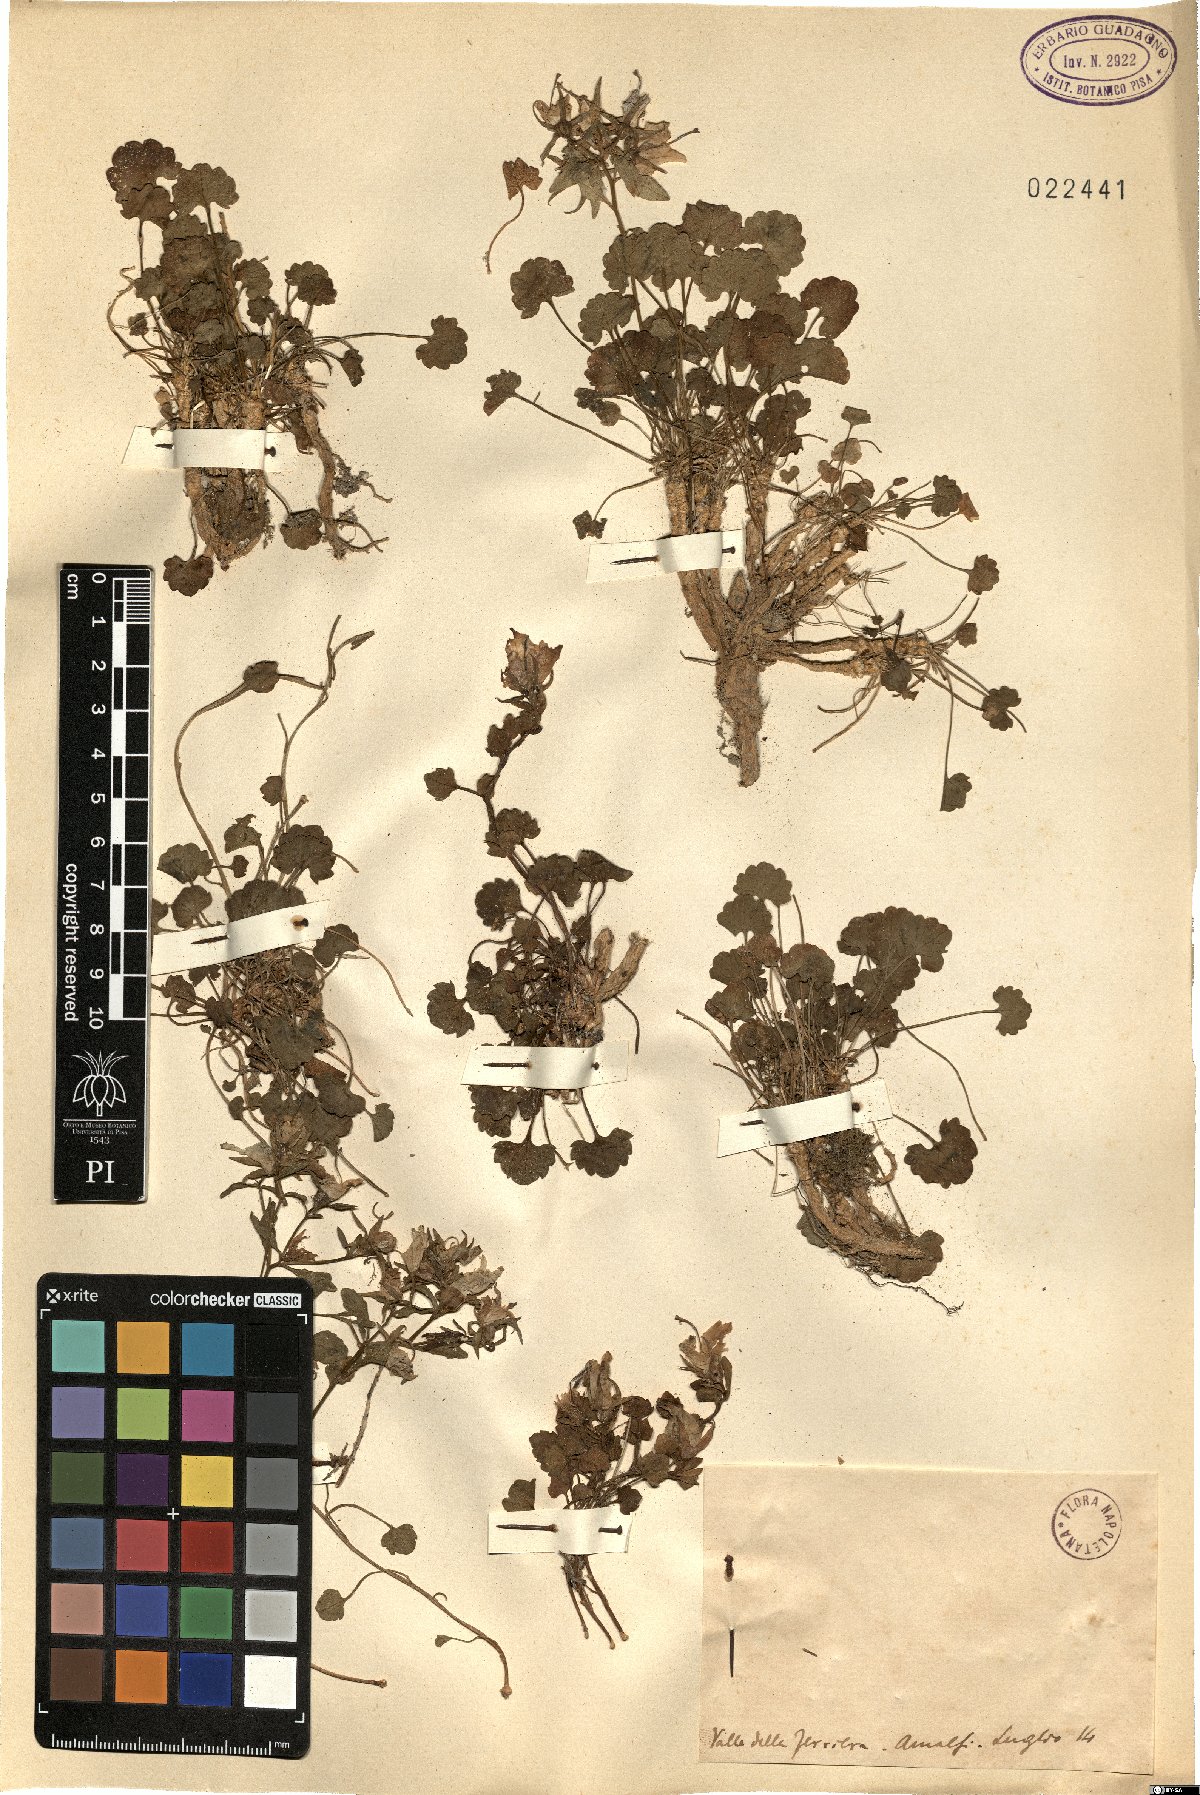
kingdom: Plantae
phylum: Tracheophyta
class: Magnoliopsida
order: Asterales
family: Campanulaceae
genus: Campanula
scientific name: Campanula
